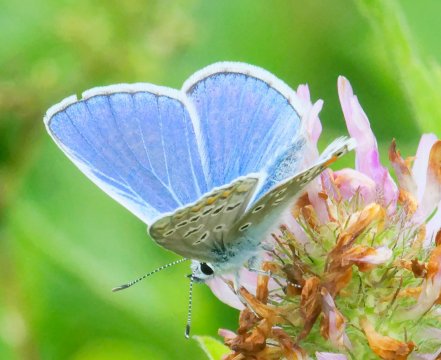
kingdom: Animalia
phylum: Arthropoda
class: Insecta
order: Lepidoptera
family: Lycaenidae
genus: Polyommatus
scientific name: Polyommatus icarus
